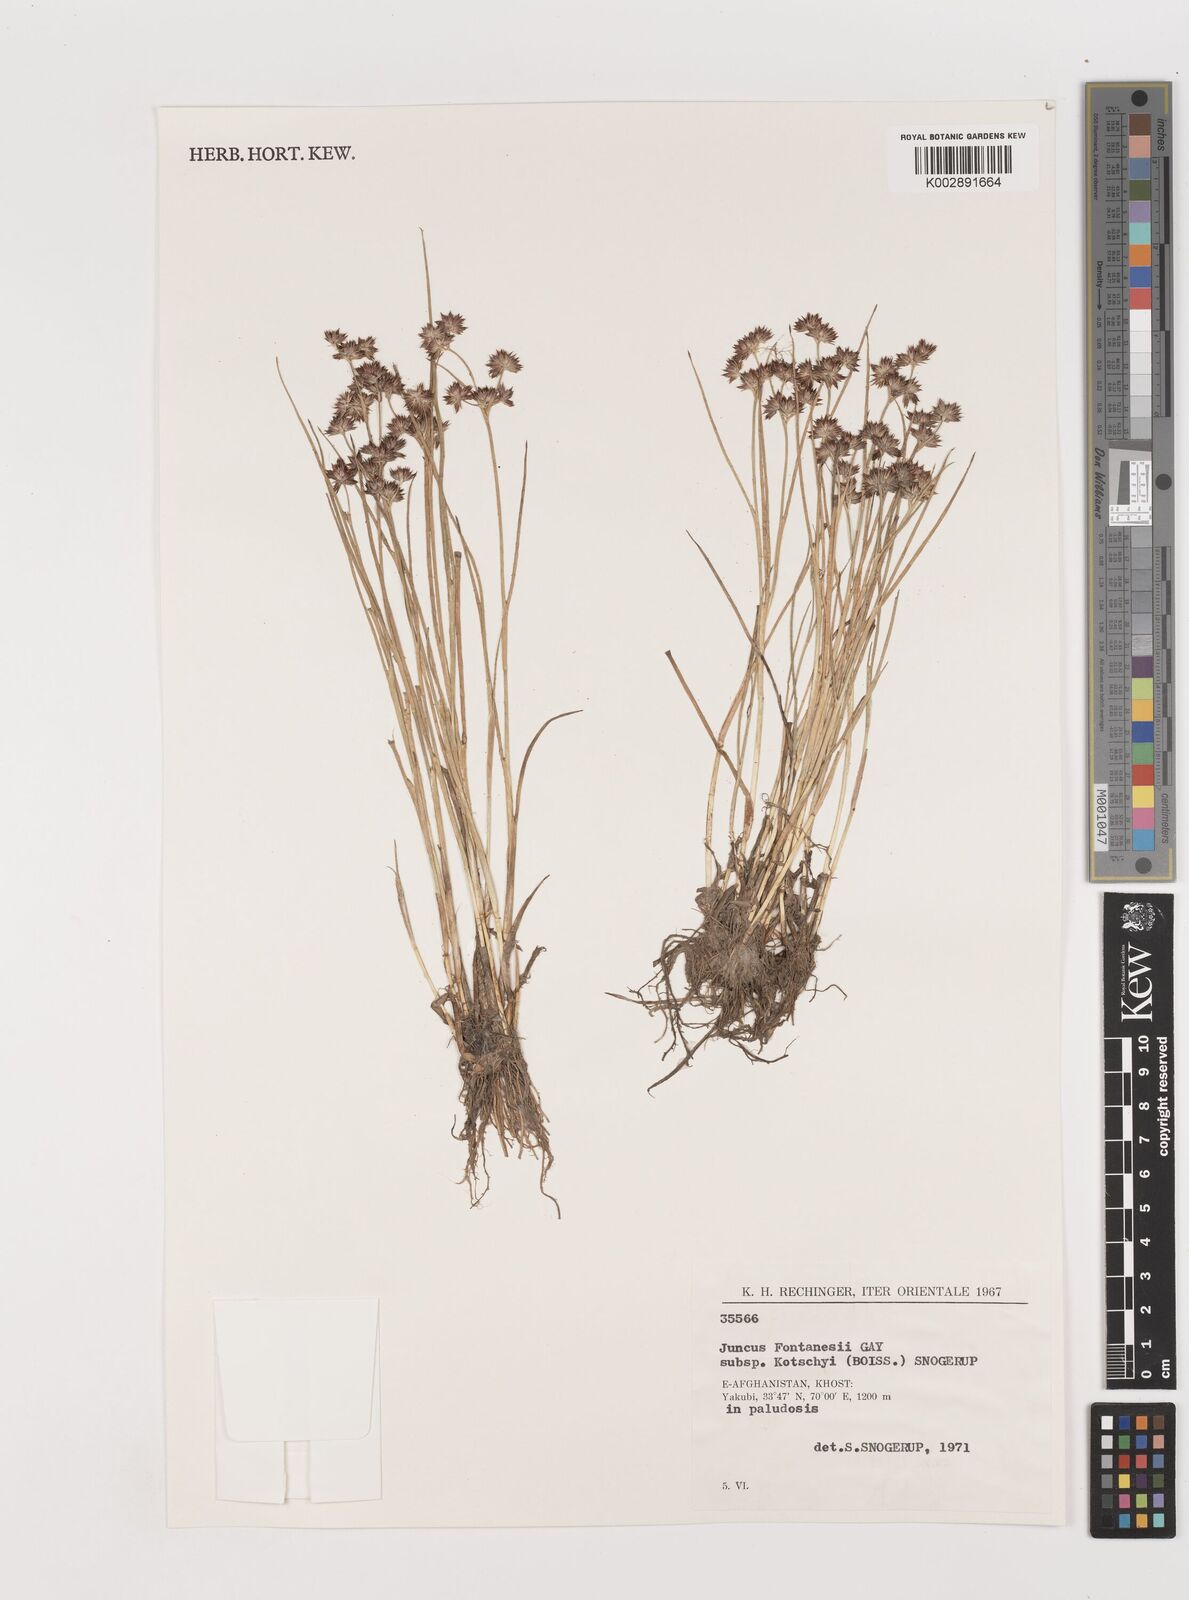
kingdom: Plantae
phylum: Tracheophyta
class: Liliopsida
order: Poales
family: Juncaceae
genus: Juncus
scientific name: Juncus fontanesii
